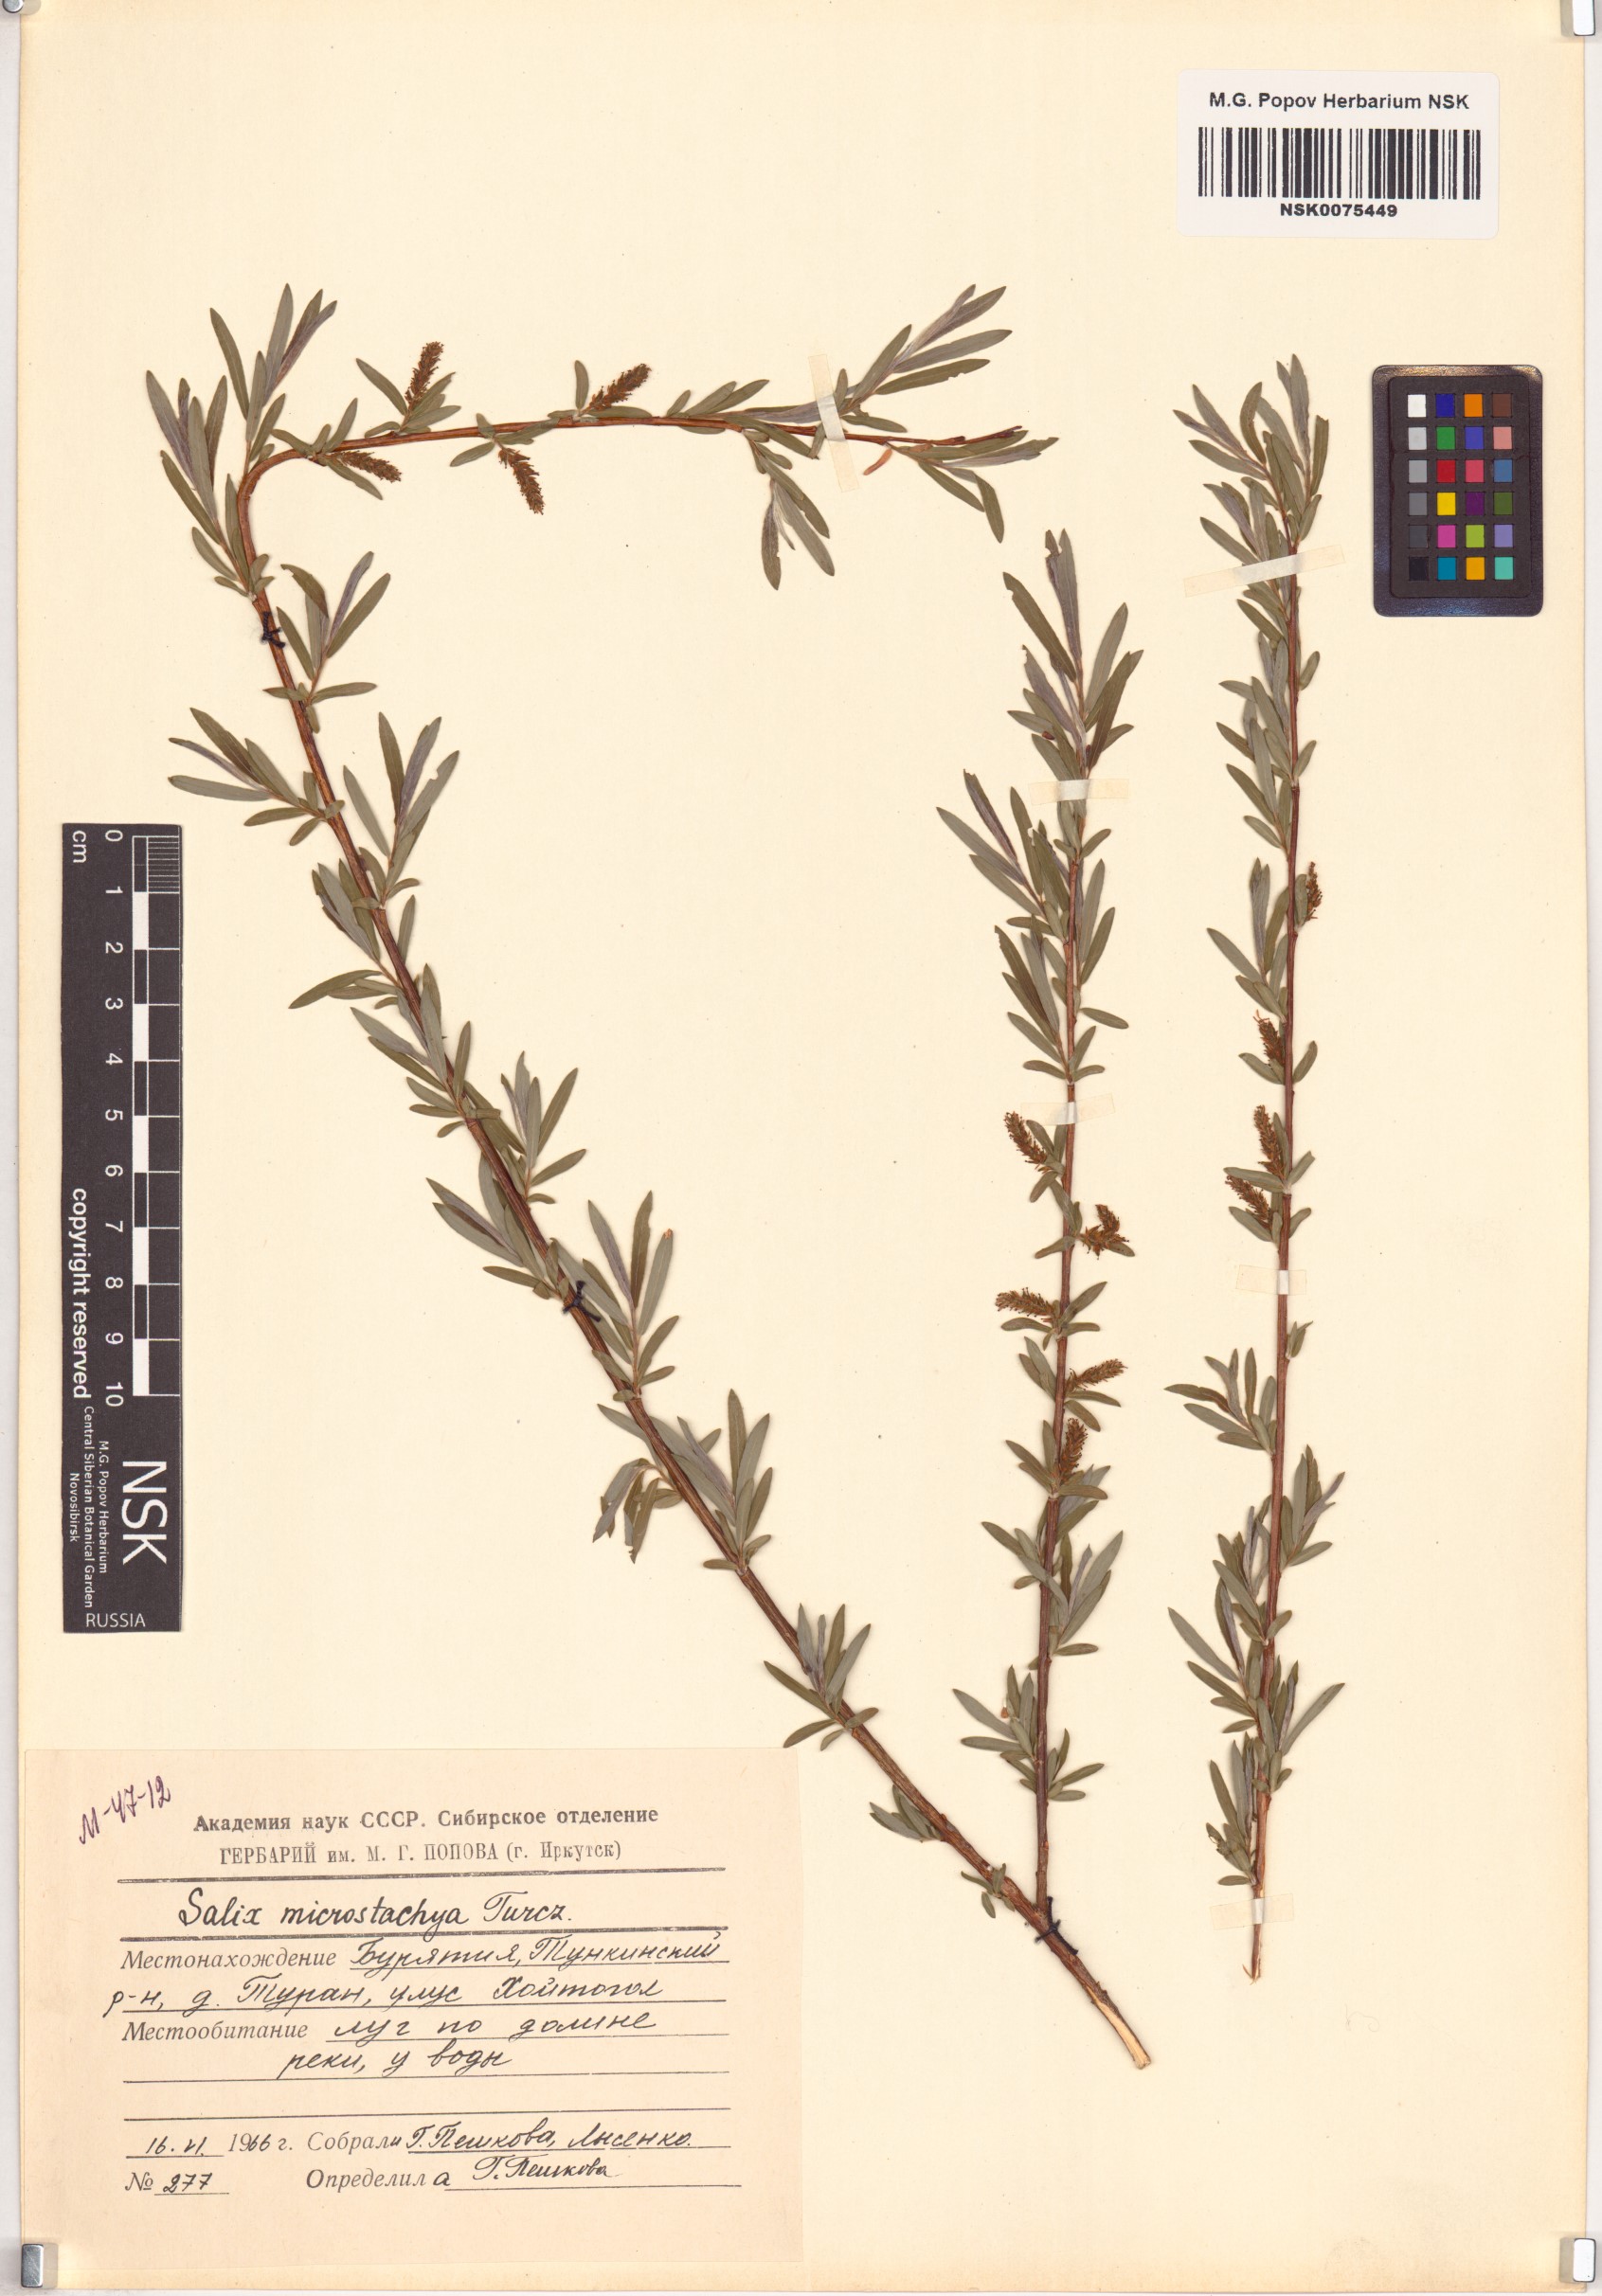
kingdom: Plantae
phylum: Tracheophyta
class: Magnoliopsida
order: Malpighiales
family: Salicaceae
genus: Salix
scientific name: Salix microstachya
